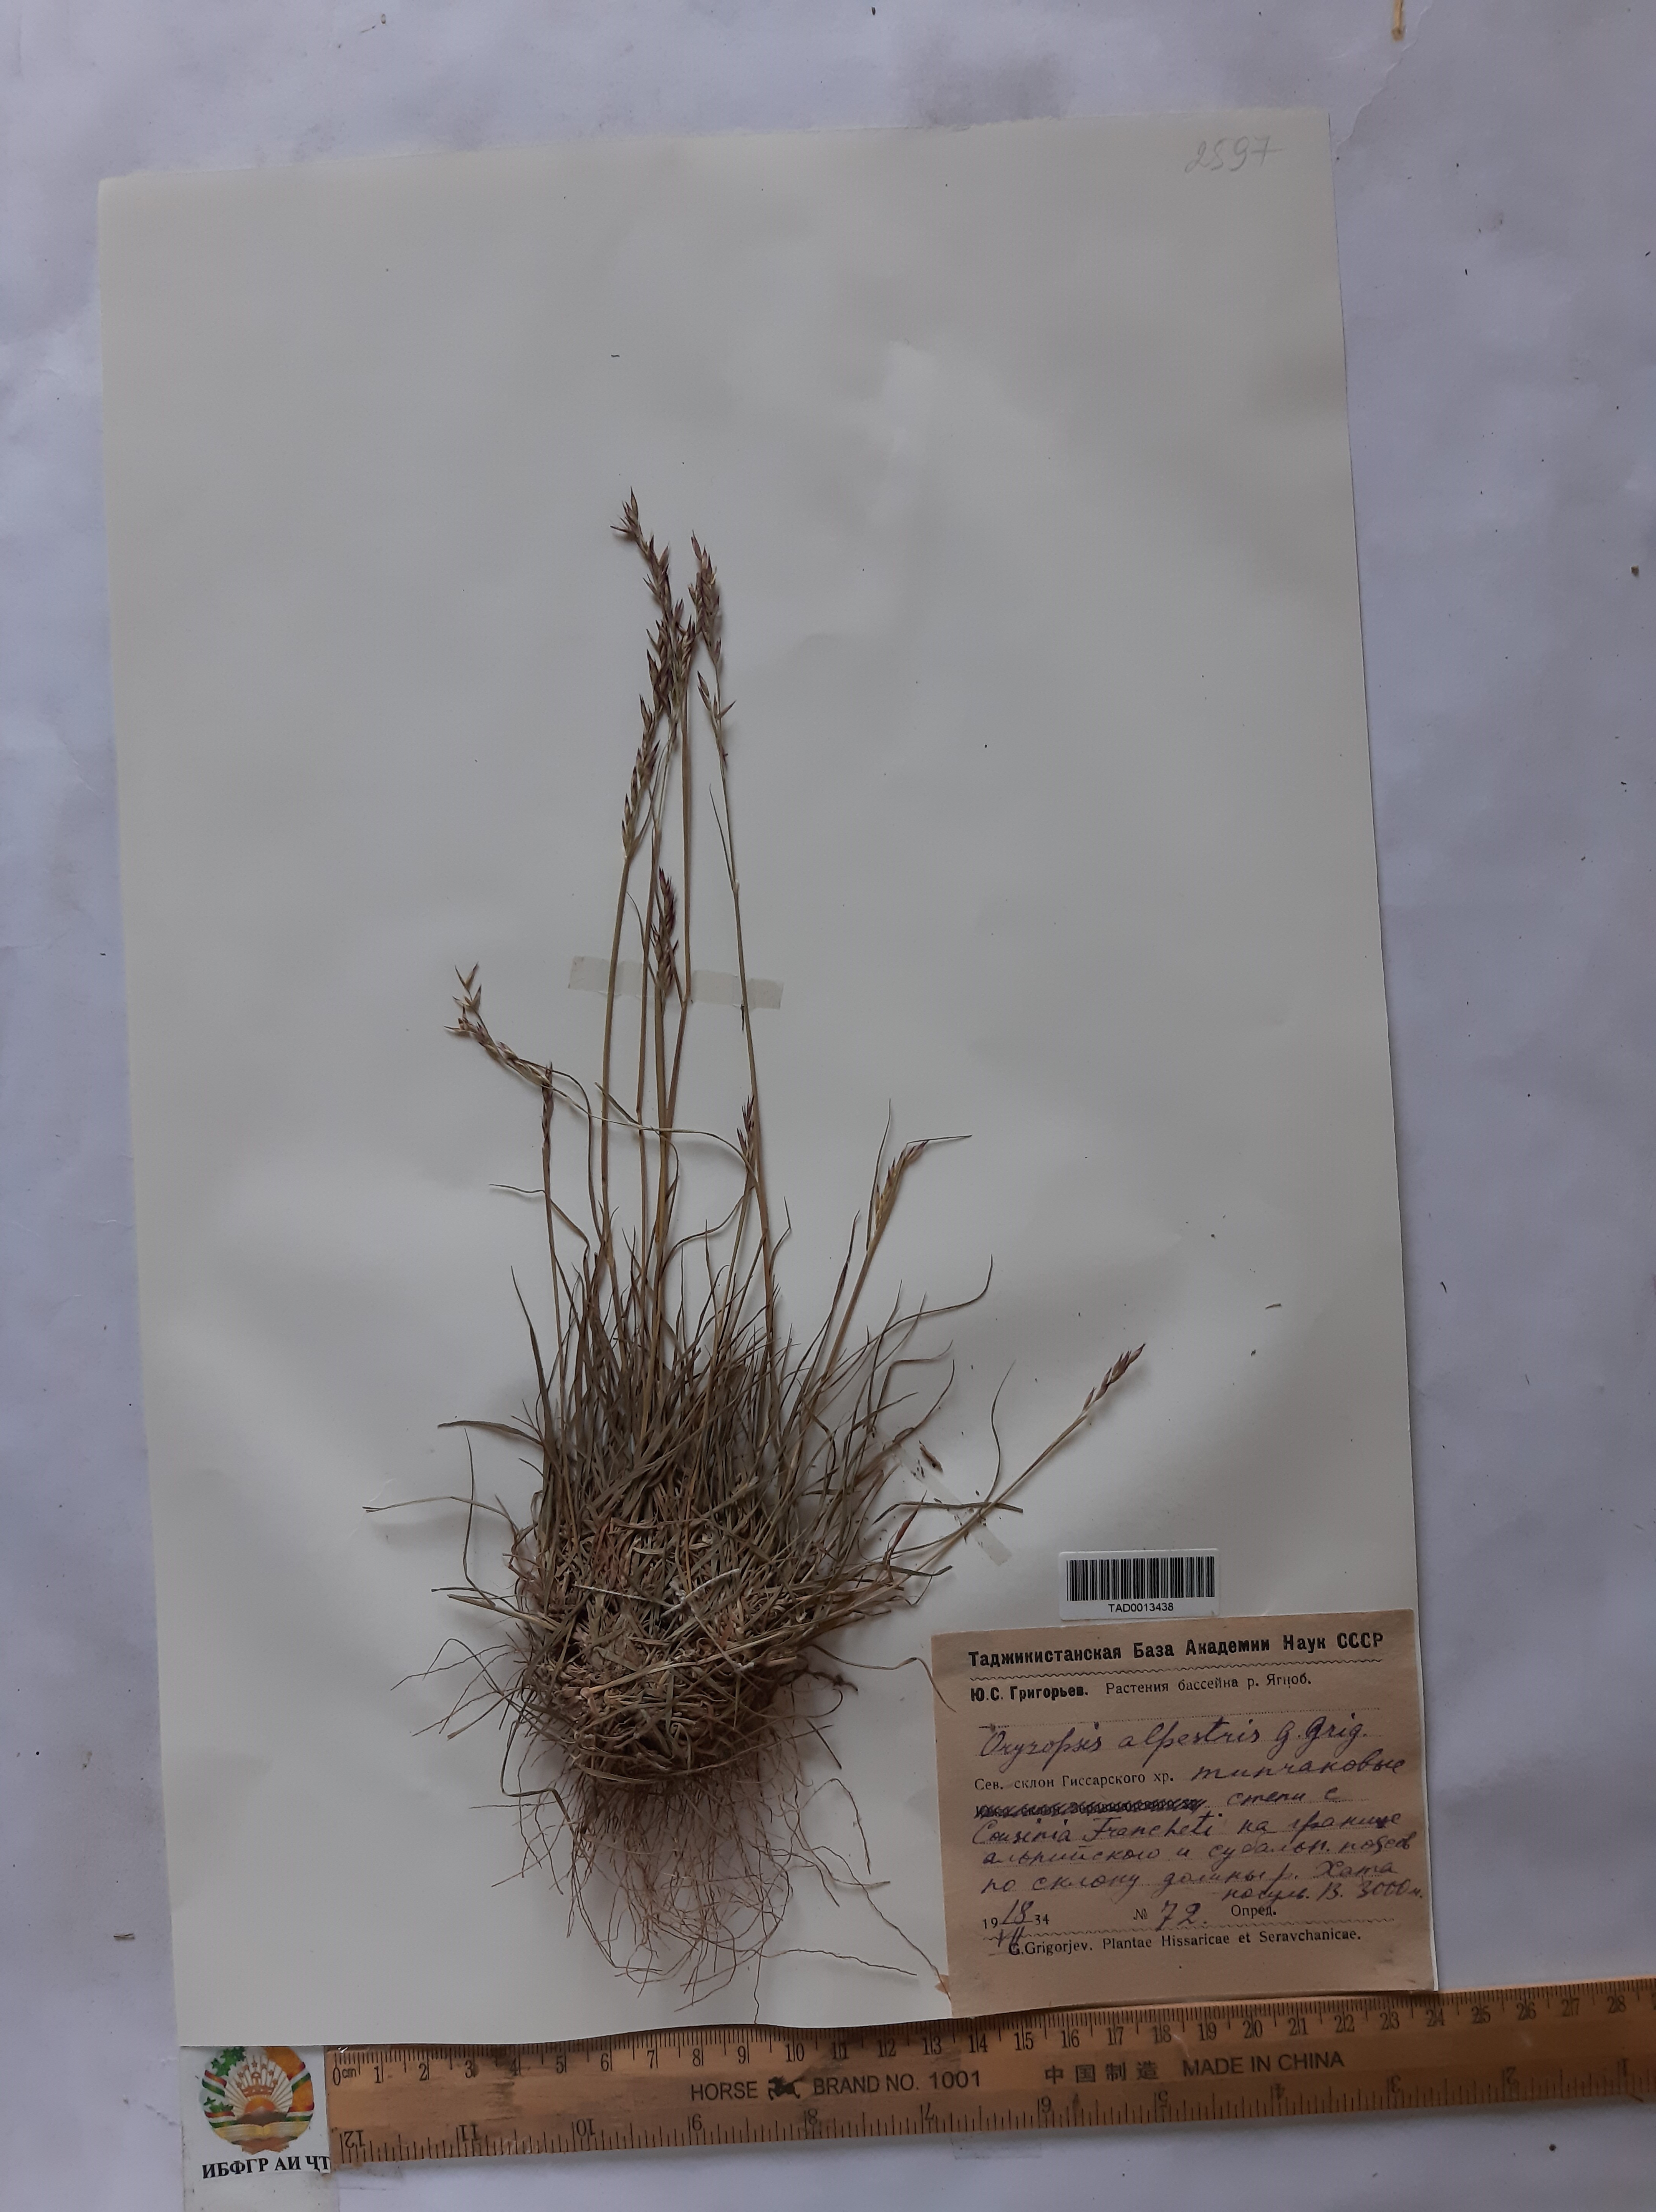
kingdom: Plantae
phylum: Tracheophyta
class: Liliopsida
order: Poales
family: Poaceae
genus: Piptatherum
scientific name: Piptatherum alpestre
